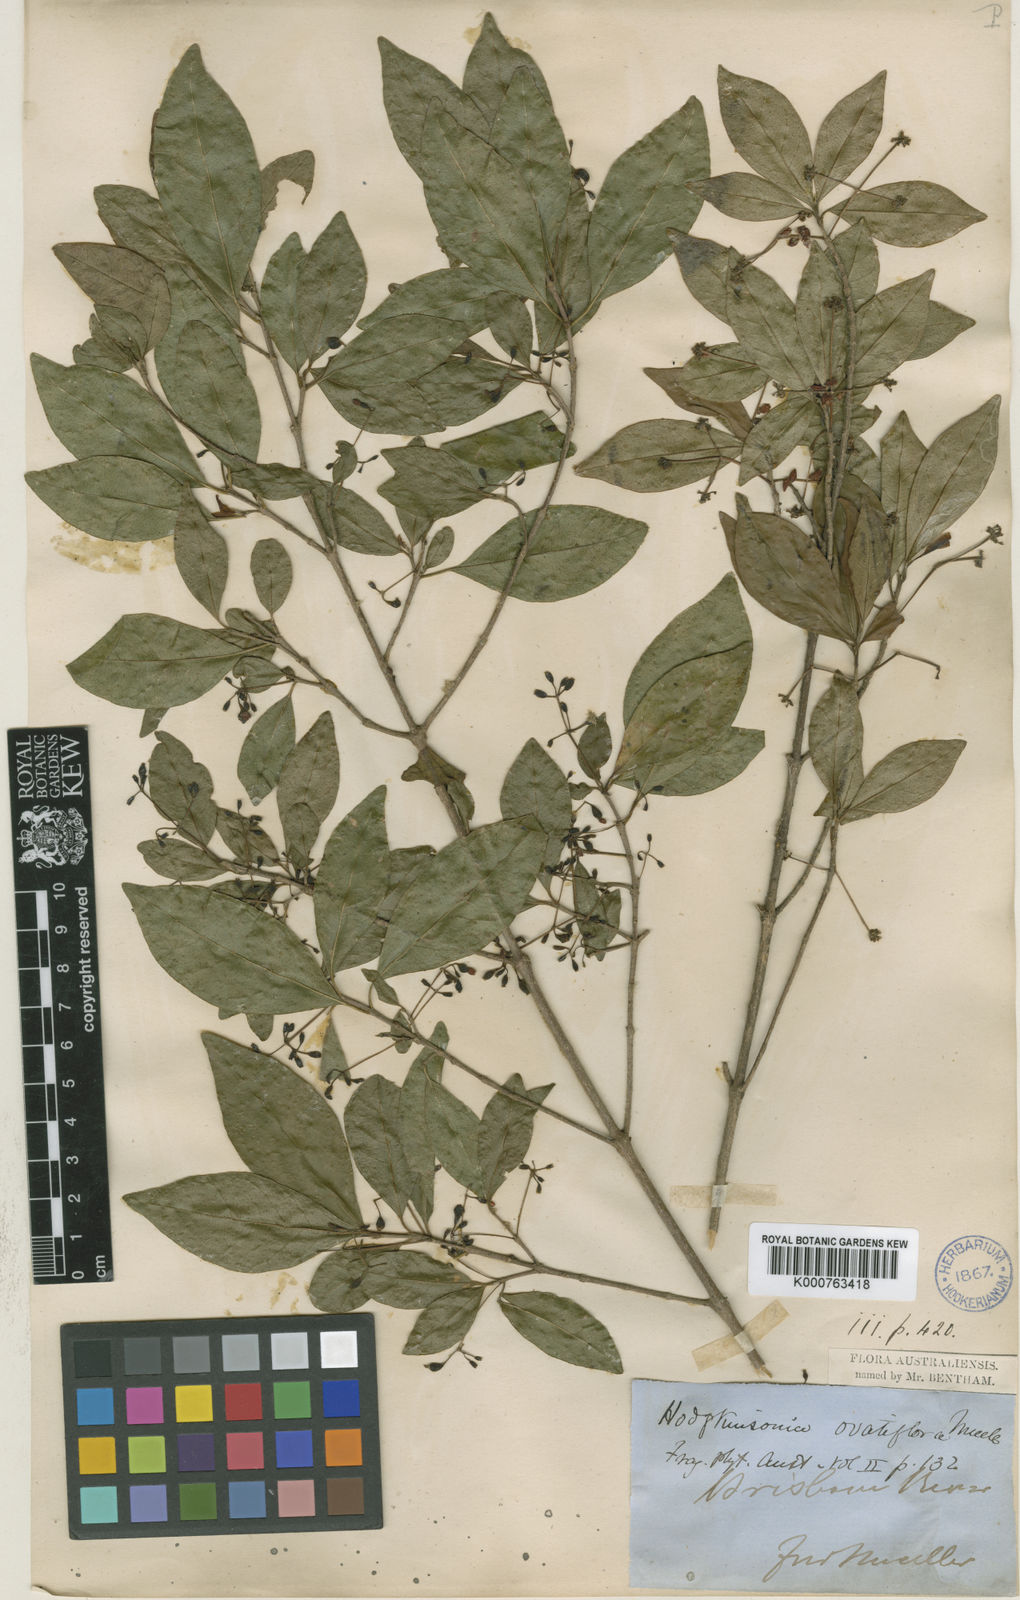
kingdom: Plantae
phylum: Tracheophyta
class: Magnoliopsida
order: Gentianales
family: Rubiaceae
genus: Hodgkinsonia
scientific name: Hodgkinsonia ovatiflora
